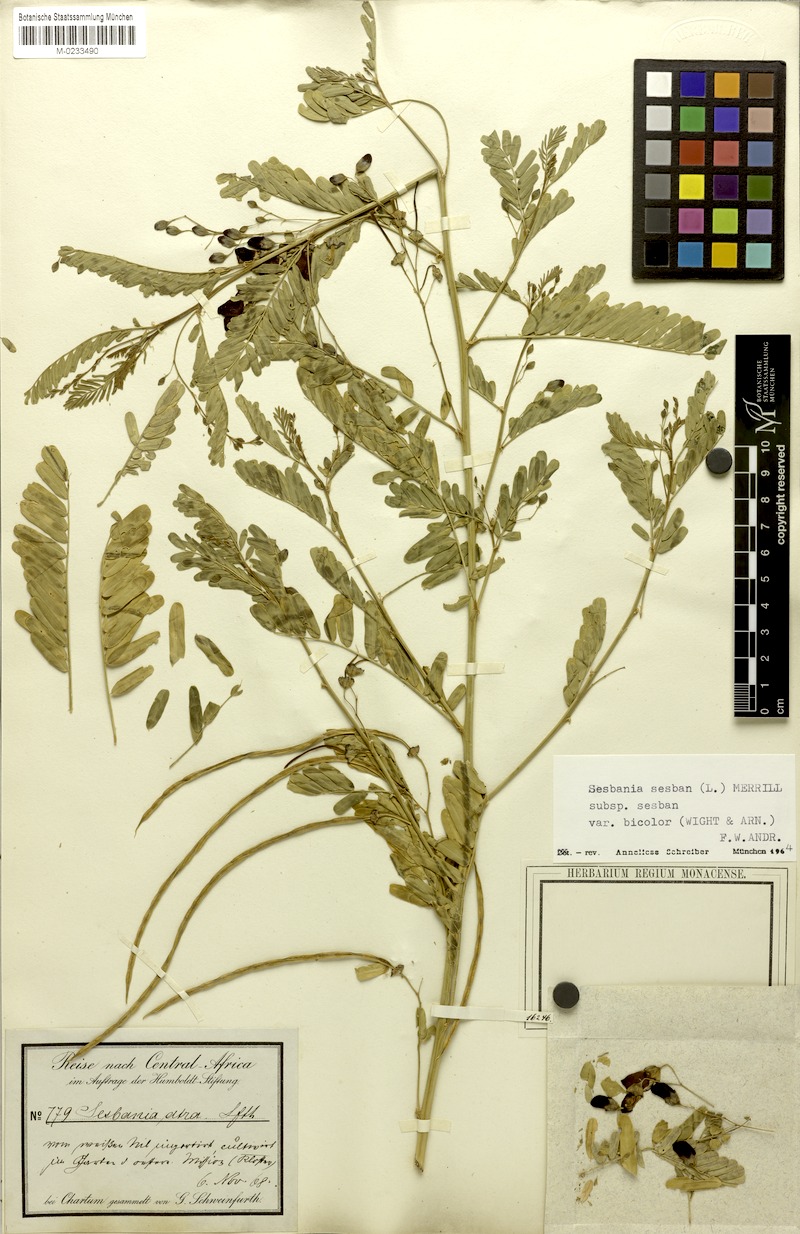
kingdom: Plantae
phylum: Tracheophyta
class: Magnoliopsida
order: Fabales
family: Fabaceae
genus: Sesbania
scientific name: Sesbania sesban
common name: Egyptian sesban
